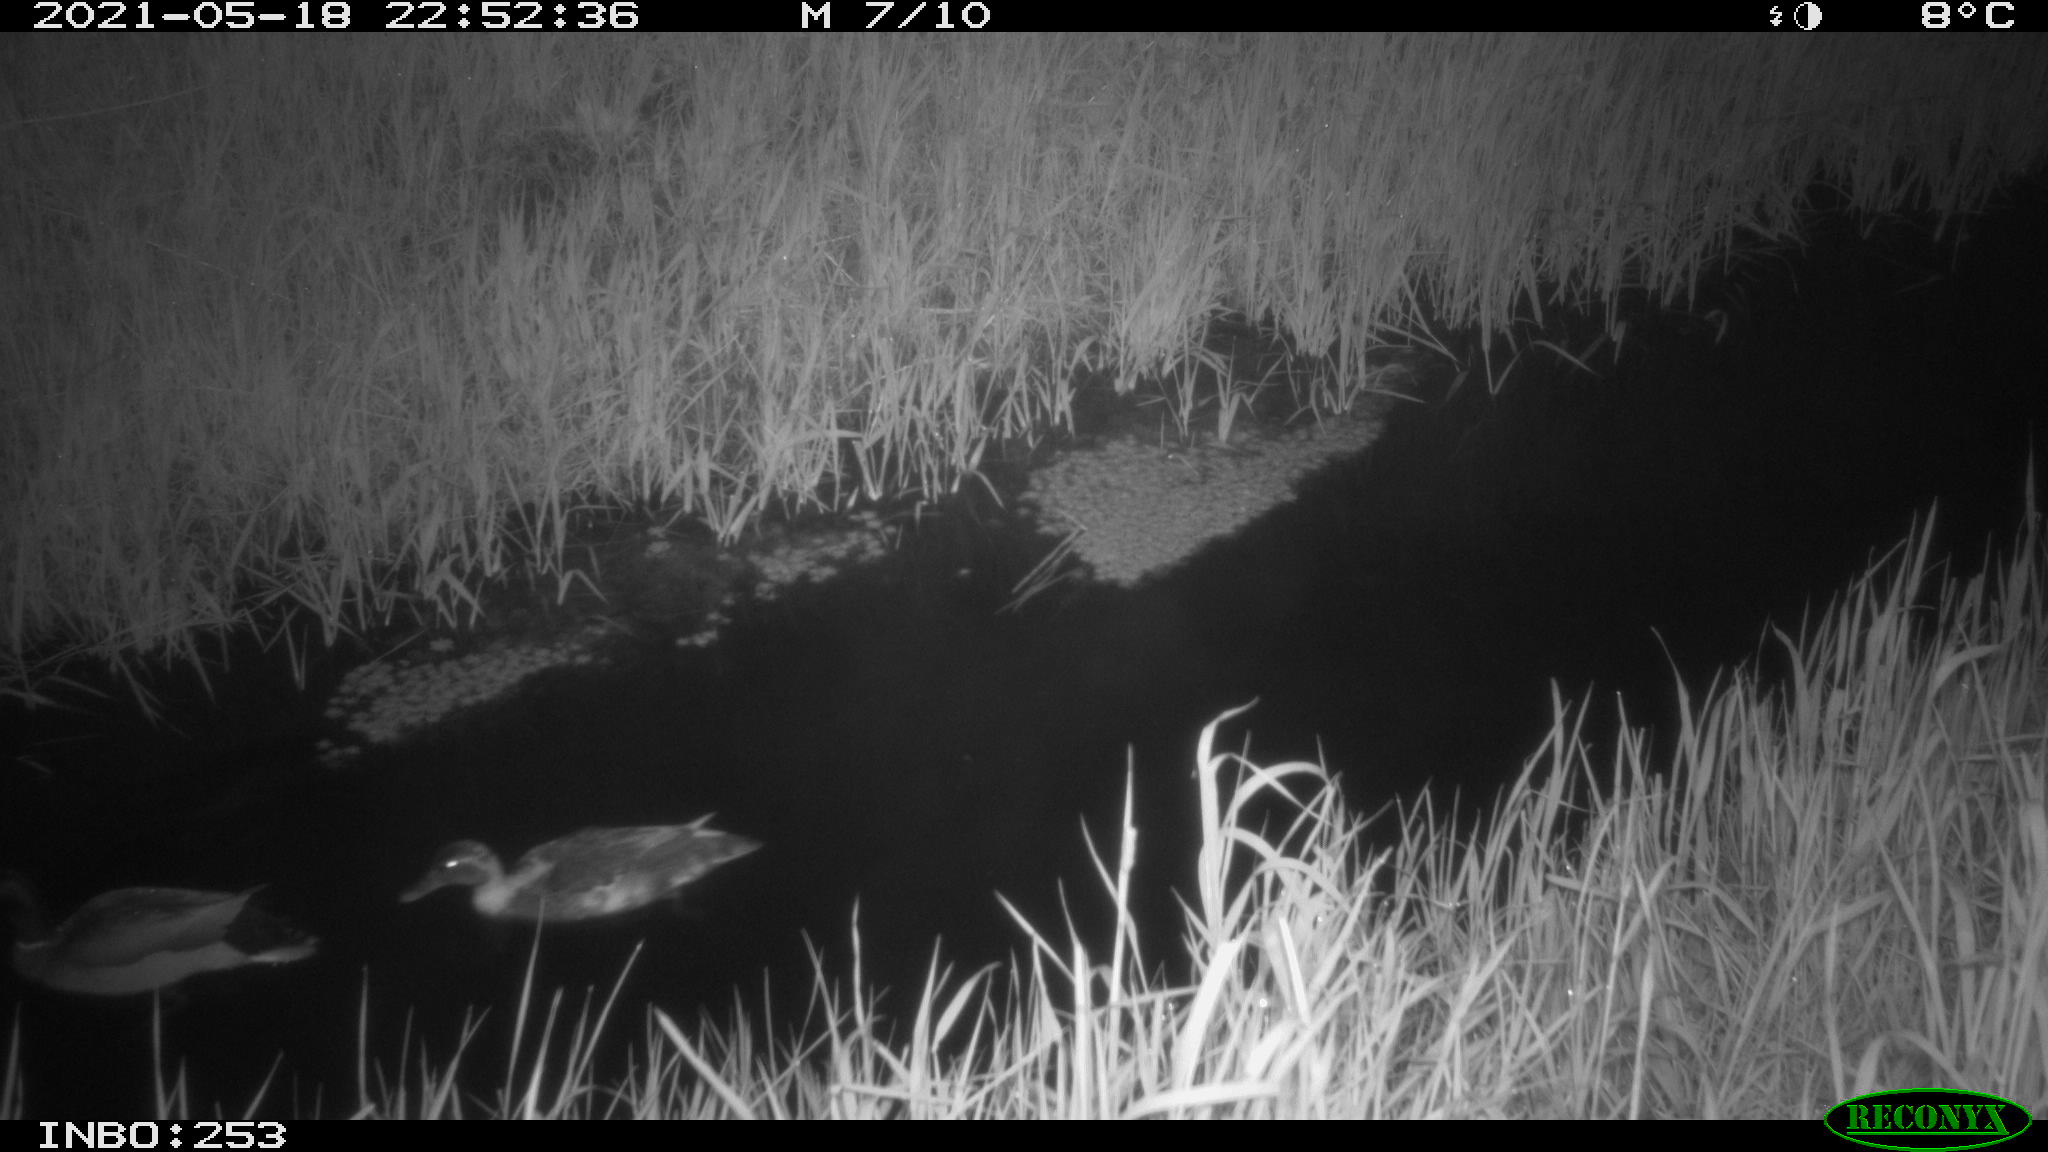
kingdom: Animalia
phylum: Chordata
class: Aves
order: Anseriformes
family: Anatidae
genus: Anas
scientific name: Anas platyrhynchos
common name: Mallard
